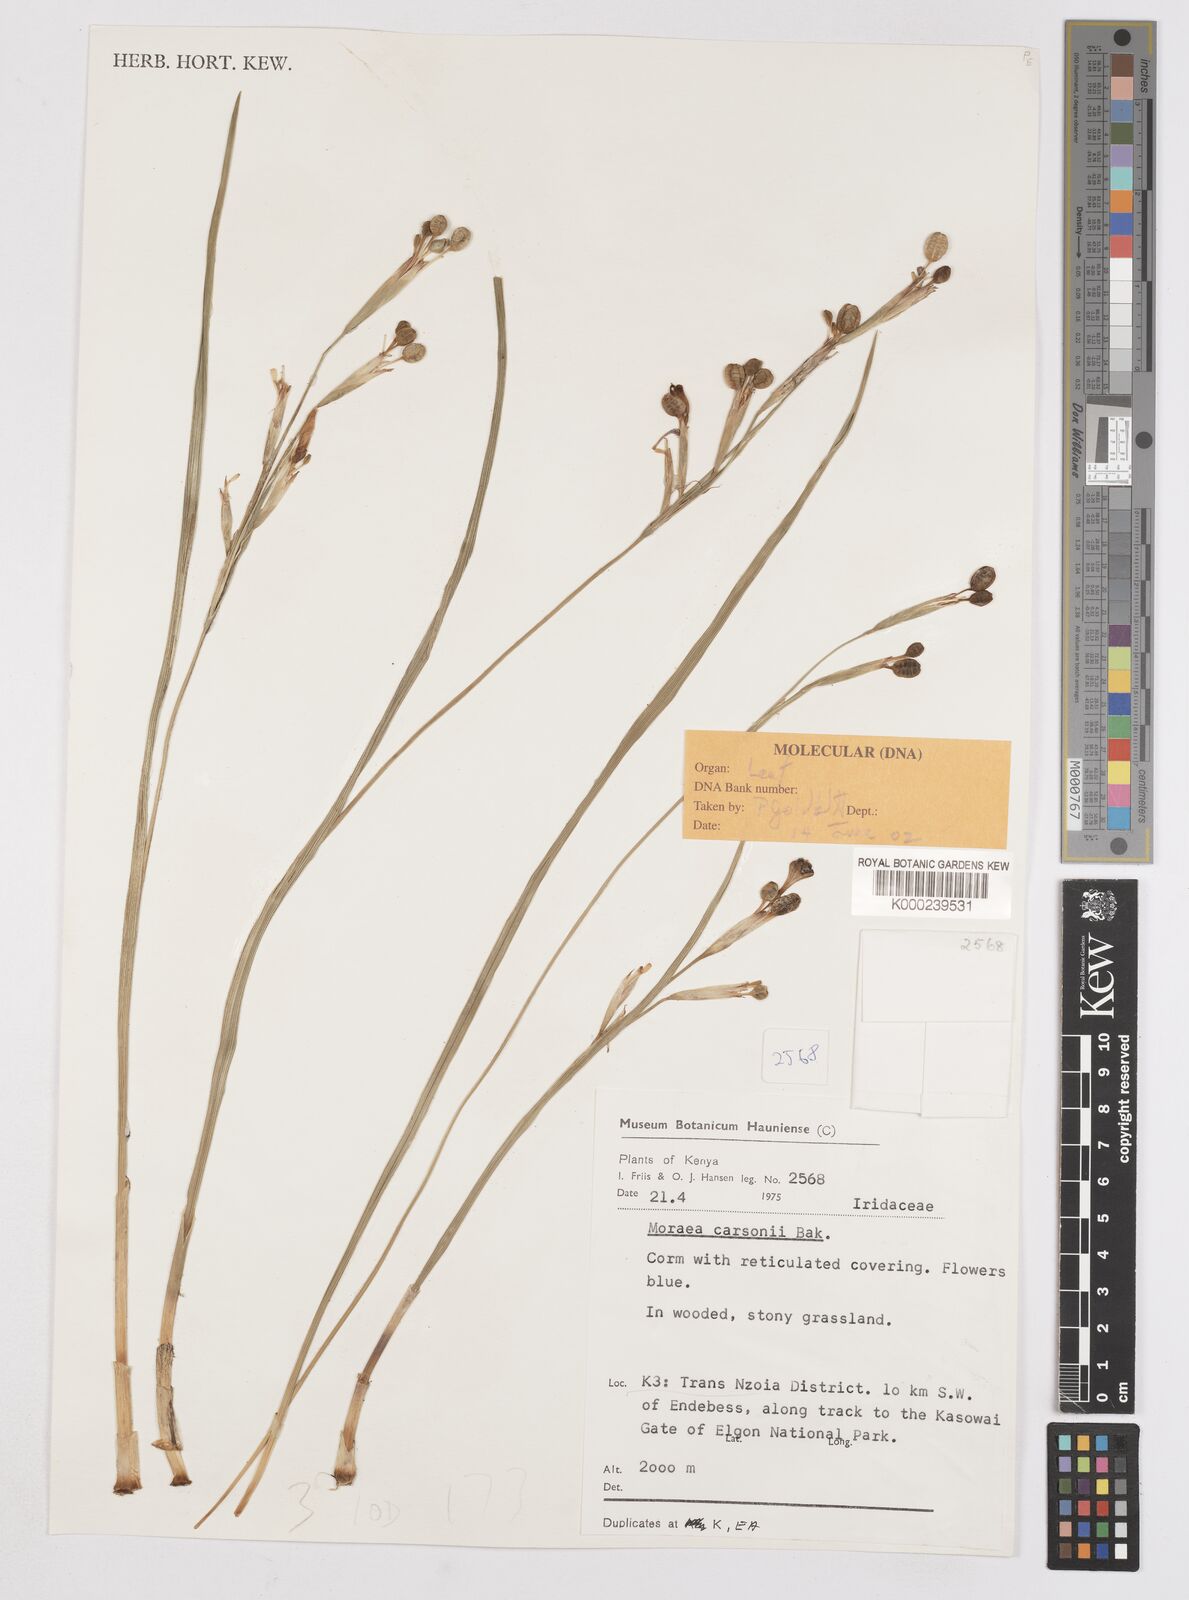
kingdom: Plantae
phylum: Tracheophyta
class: Liliopsida
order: Asparagales
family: Iridaceae
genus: Moraea
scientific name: Moraea
